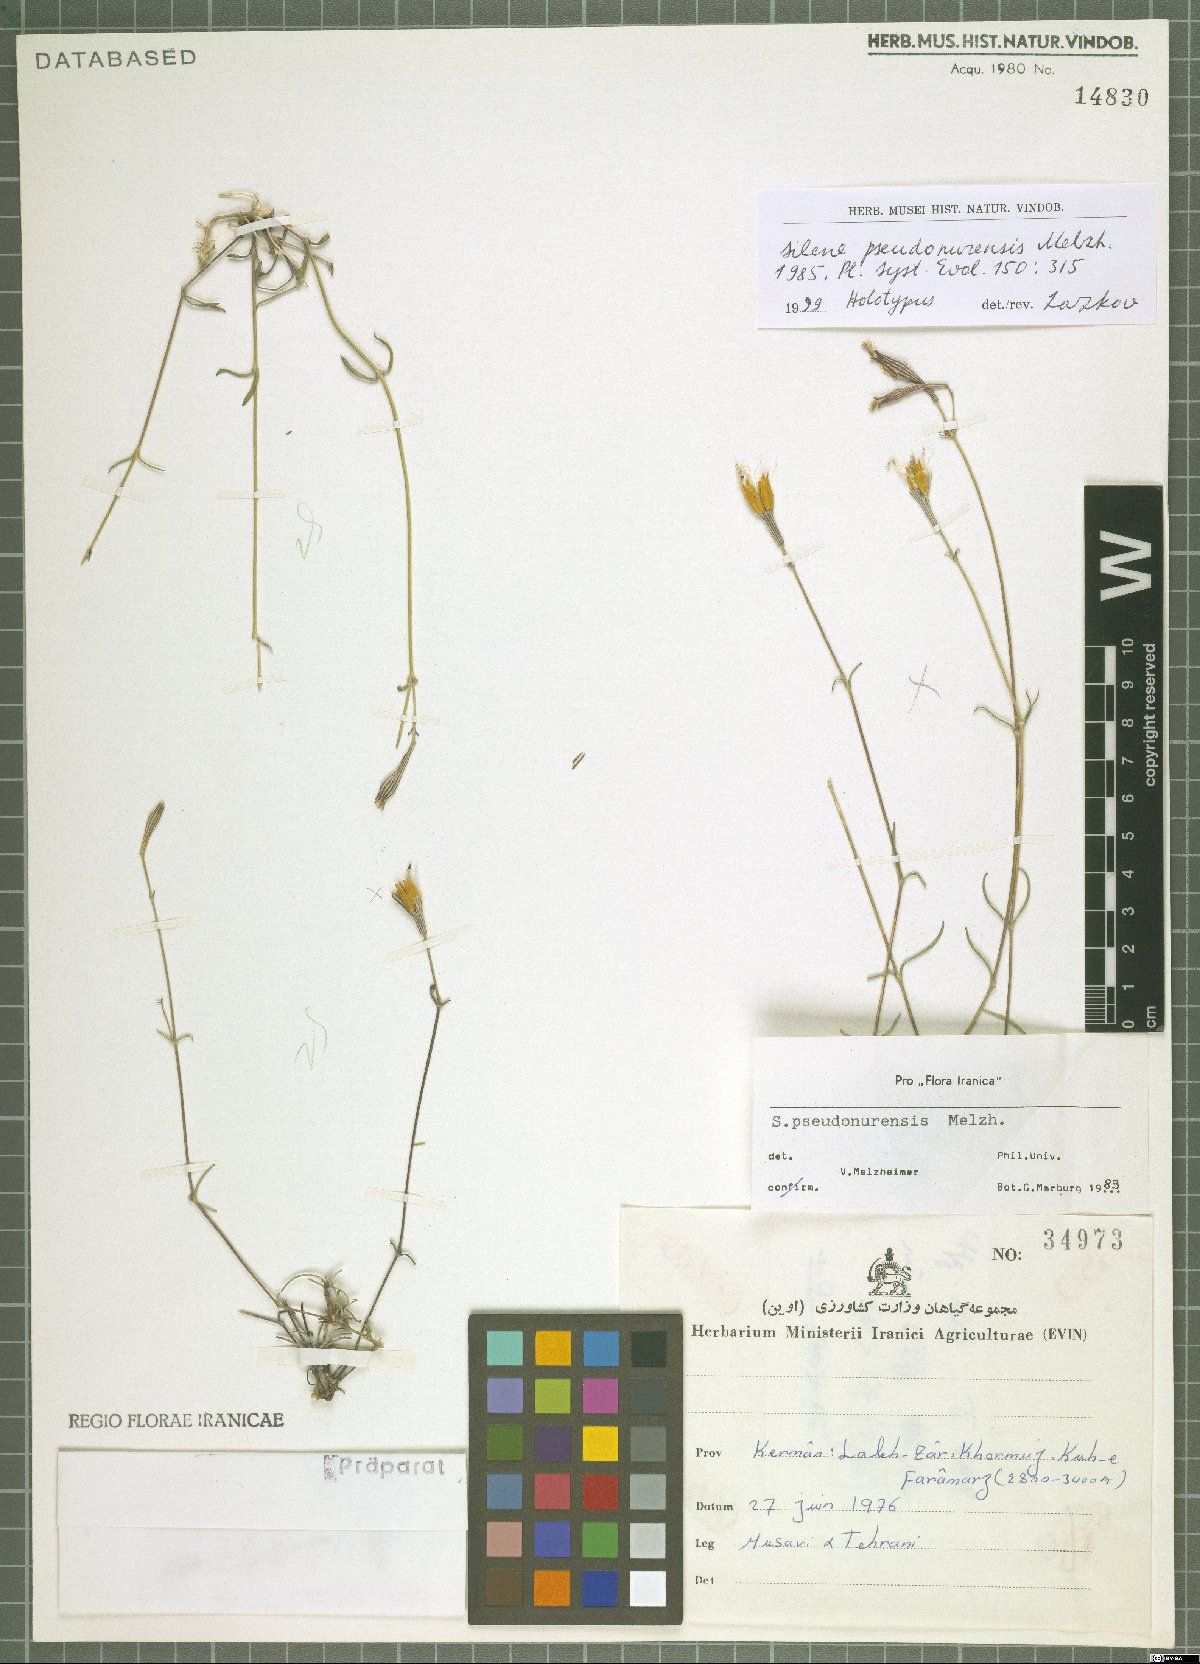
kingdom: Plantae
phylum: Tracheophyta
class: Magnoliopsida
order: Caryophyllales
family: Caryophyllaceae
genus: Silene
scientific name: Silene pseudonurensis
